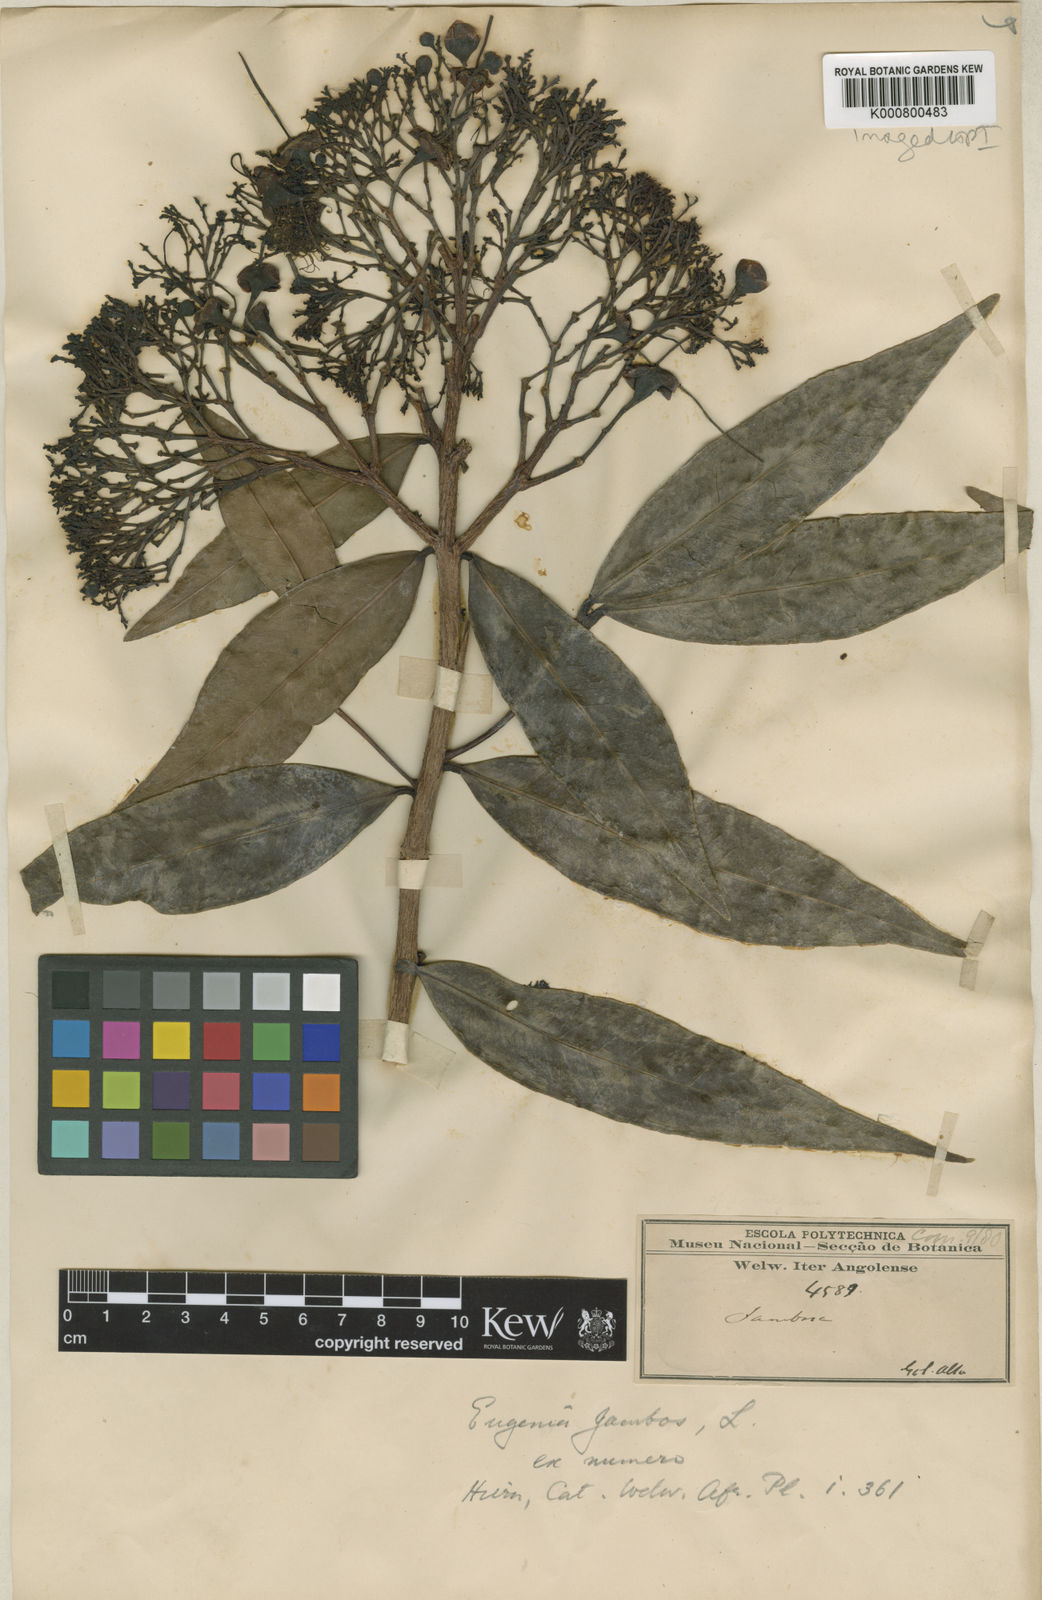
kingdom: Plantae
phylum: Tracheophyta
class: Magnoliopsida
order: Myrtales
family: Myrtaceae
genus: Syzygium
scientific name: Syzygium jambos
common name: Malabar plum
